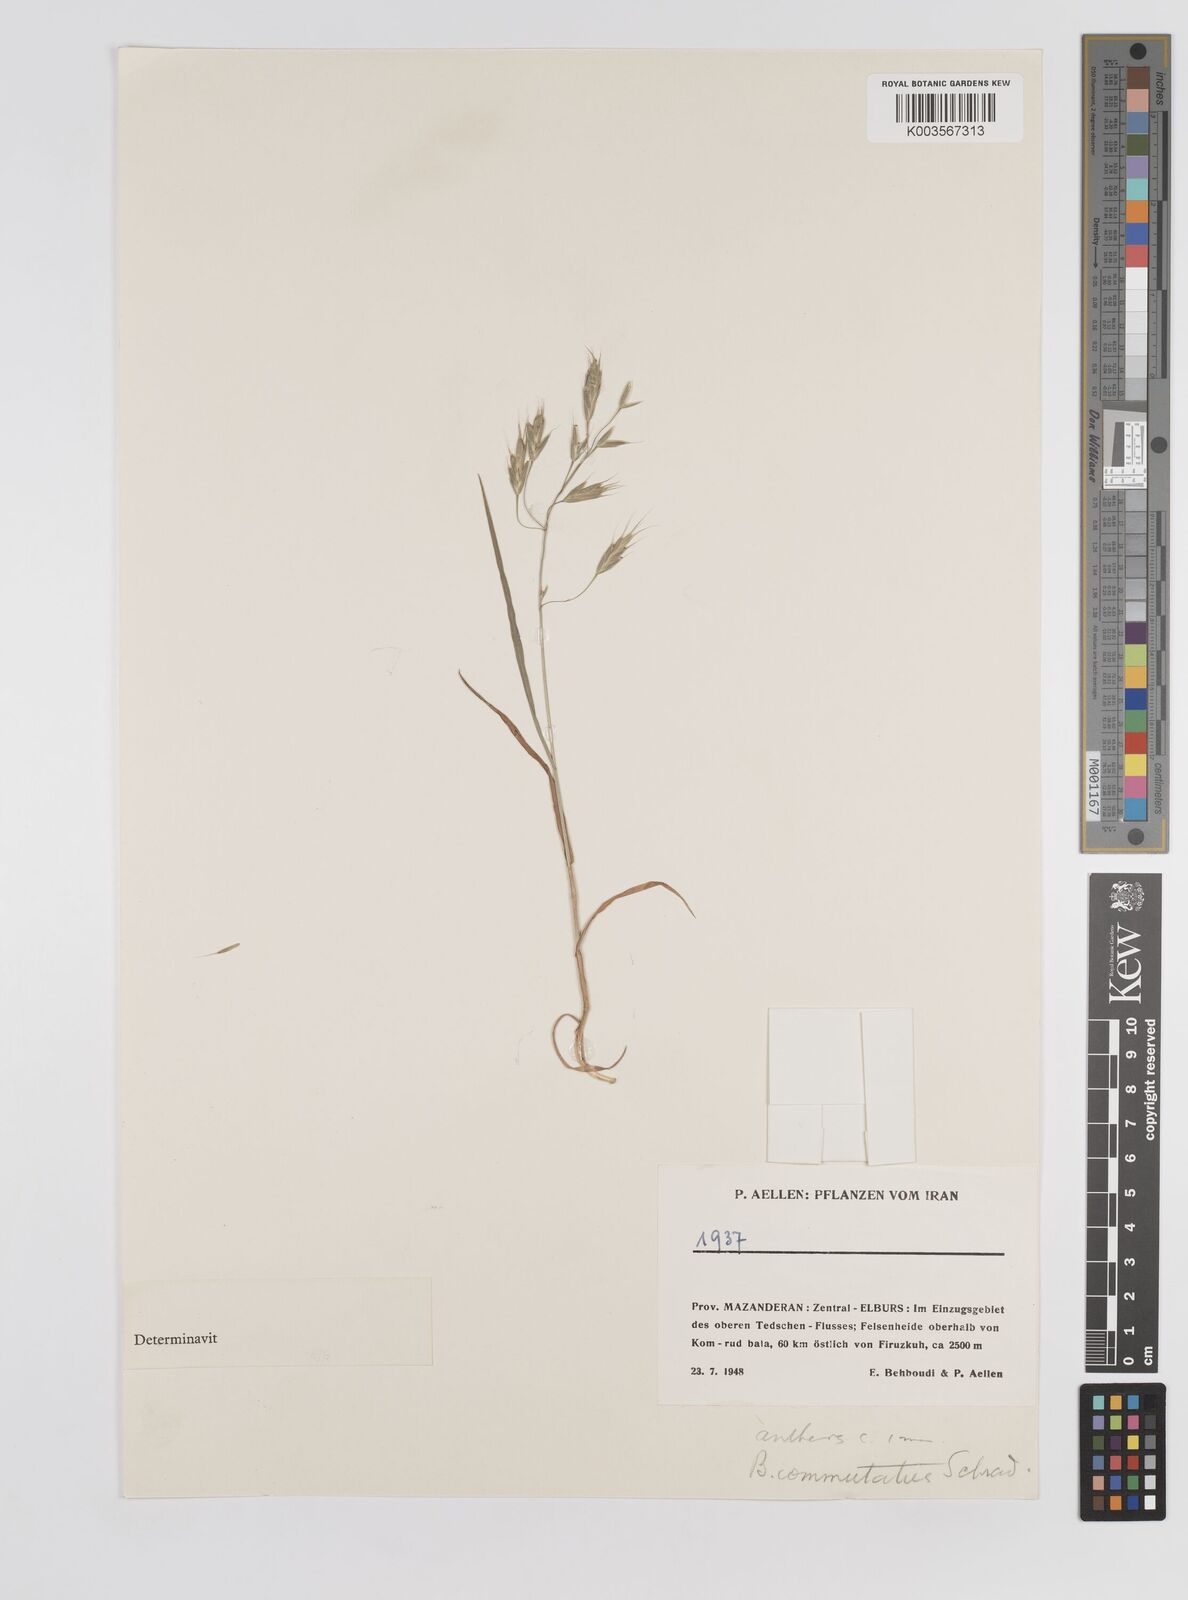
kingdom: Plantae
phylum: Tracheophyta
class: Liliopsida
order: Poales
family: Poaceae
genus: Bromus
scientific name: Bromus racemosus
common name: Bald brome
